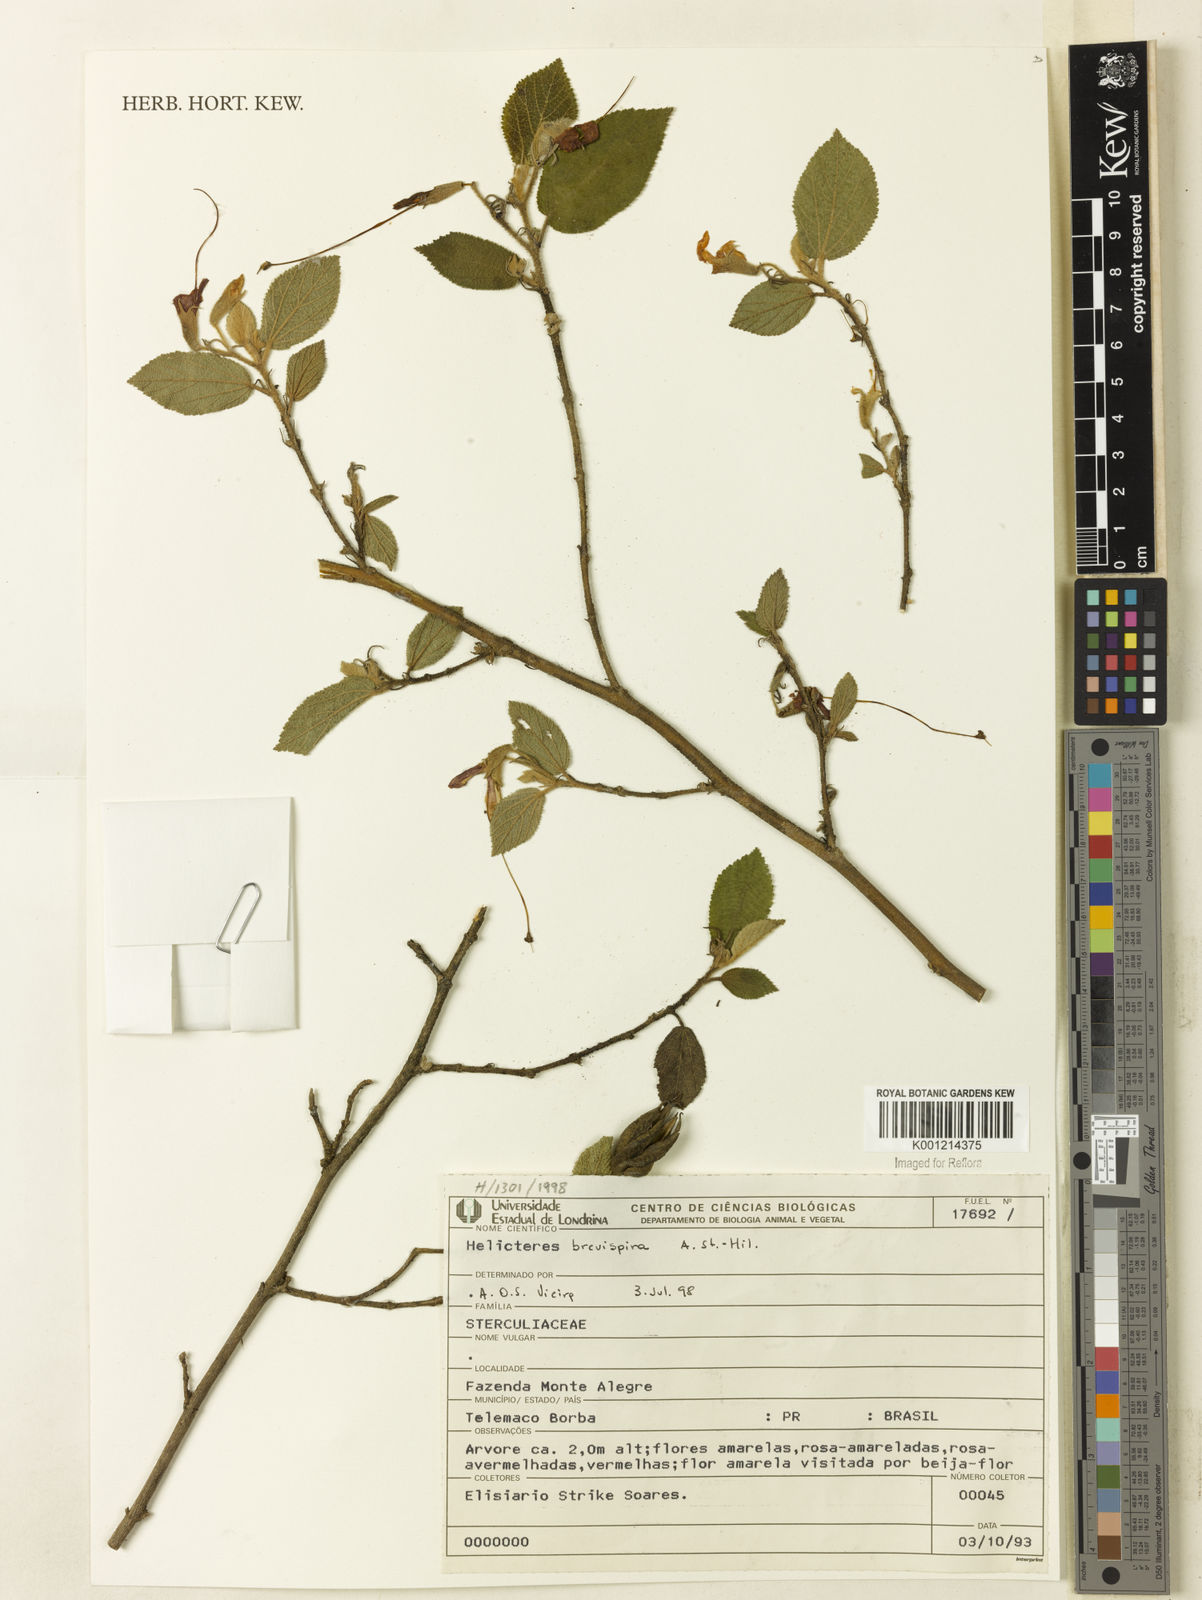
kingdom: Plantae
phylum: Tracheophyta
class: Magnoliopsida
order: Malvales
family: Malvaceae
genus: Helicteres
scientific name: Helicteres
